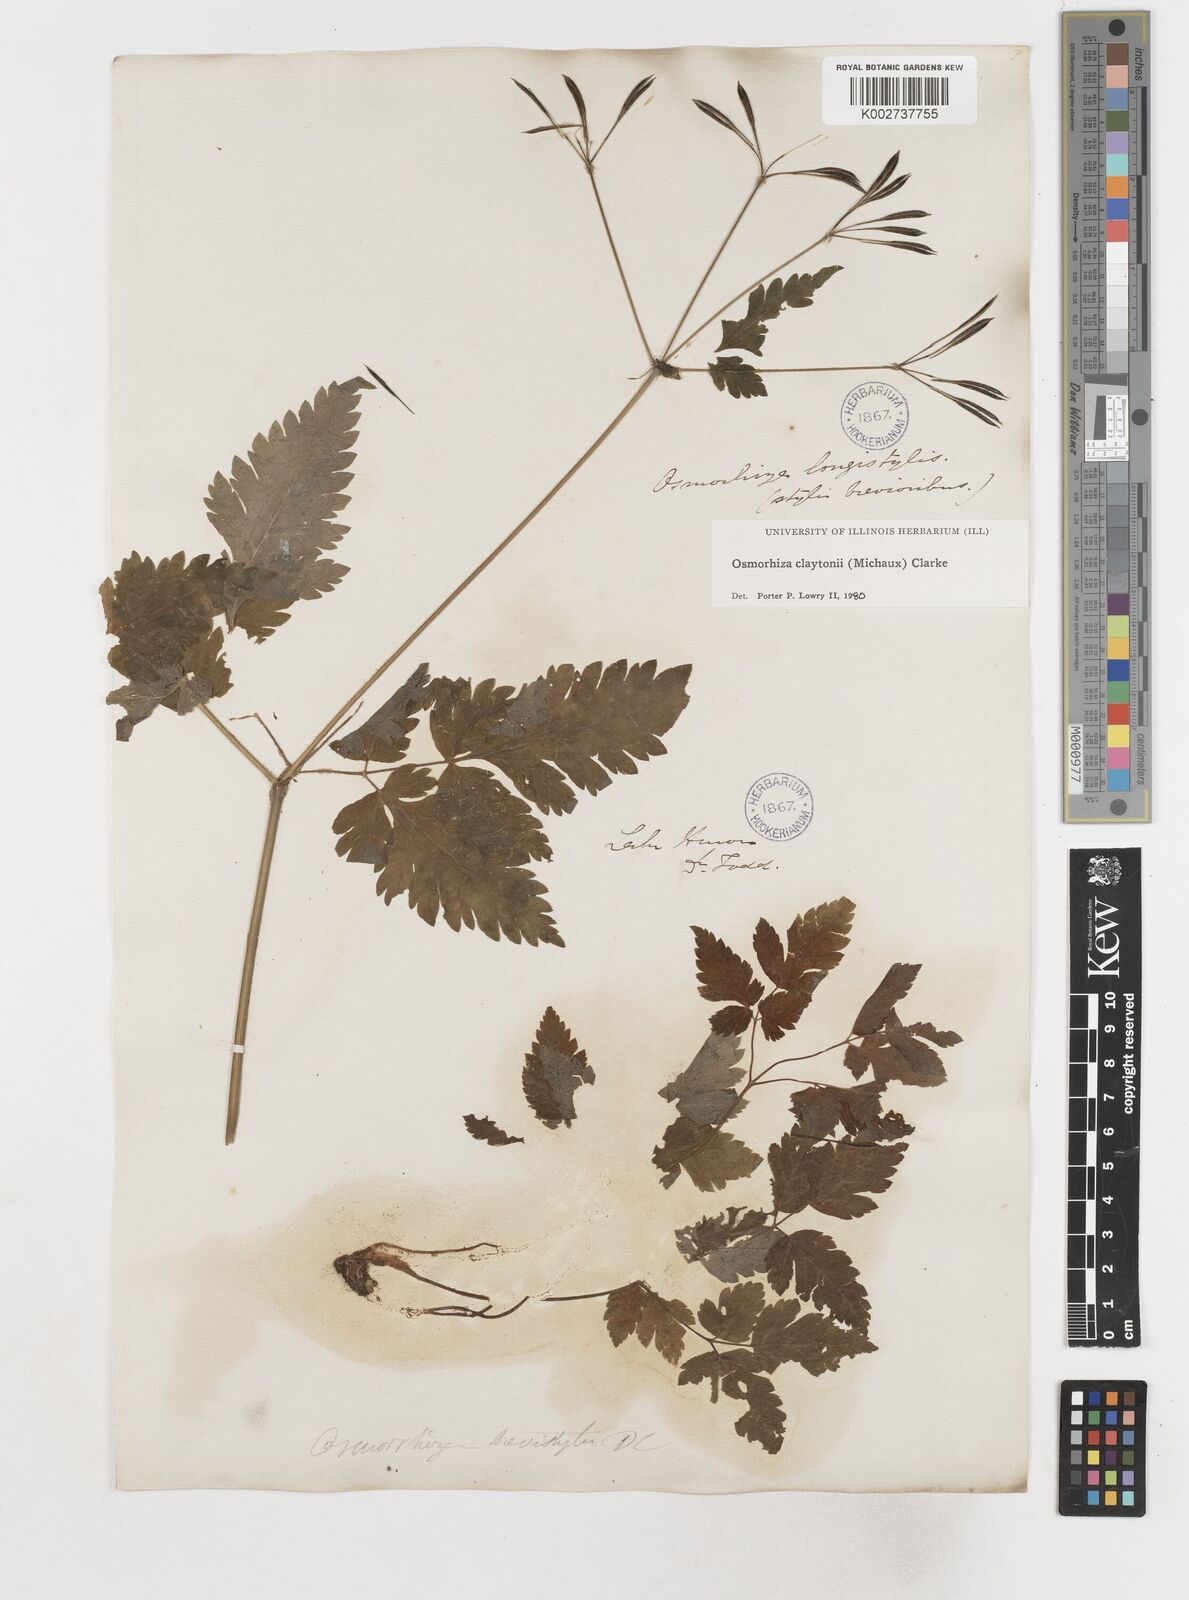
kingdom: Plantae
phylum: Tracheophyta
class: Magnoliopsida
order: Apiales
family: Apiaceae
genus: Osmorhiza
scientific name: Osmorhiza claytonii
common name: Hairy sweet cicely
